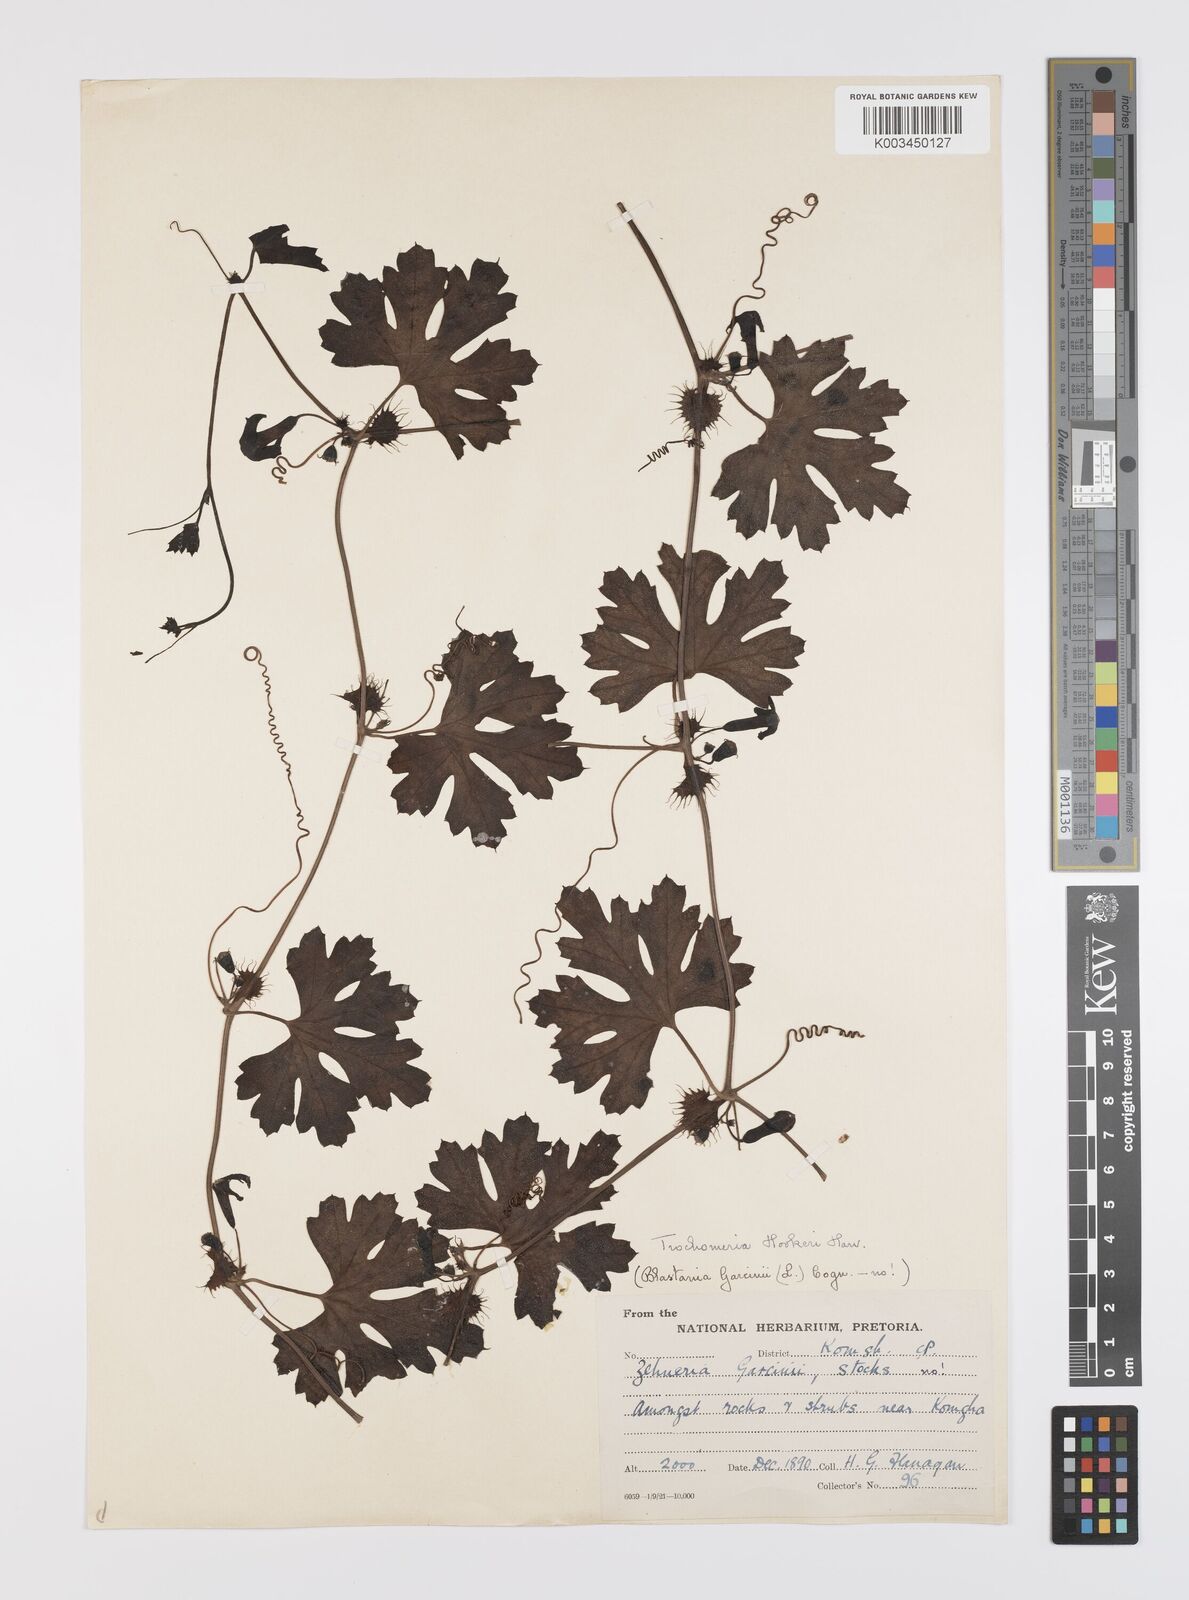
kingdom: Plantae
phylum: Tracheophyta
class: Magnoliopsida
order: Cucurbitales
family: Cucurbitaceae
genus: Trochomeria
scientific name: Trochomeria hookeri
